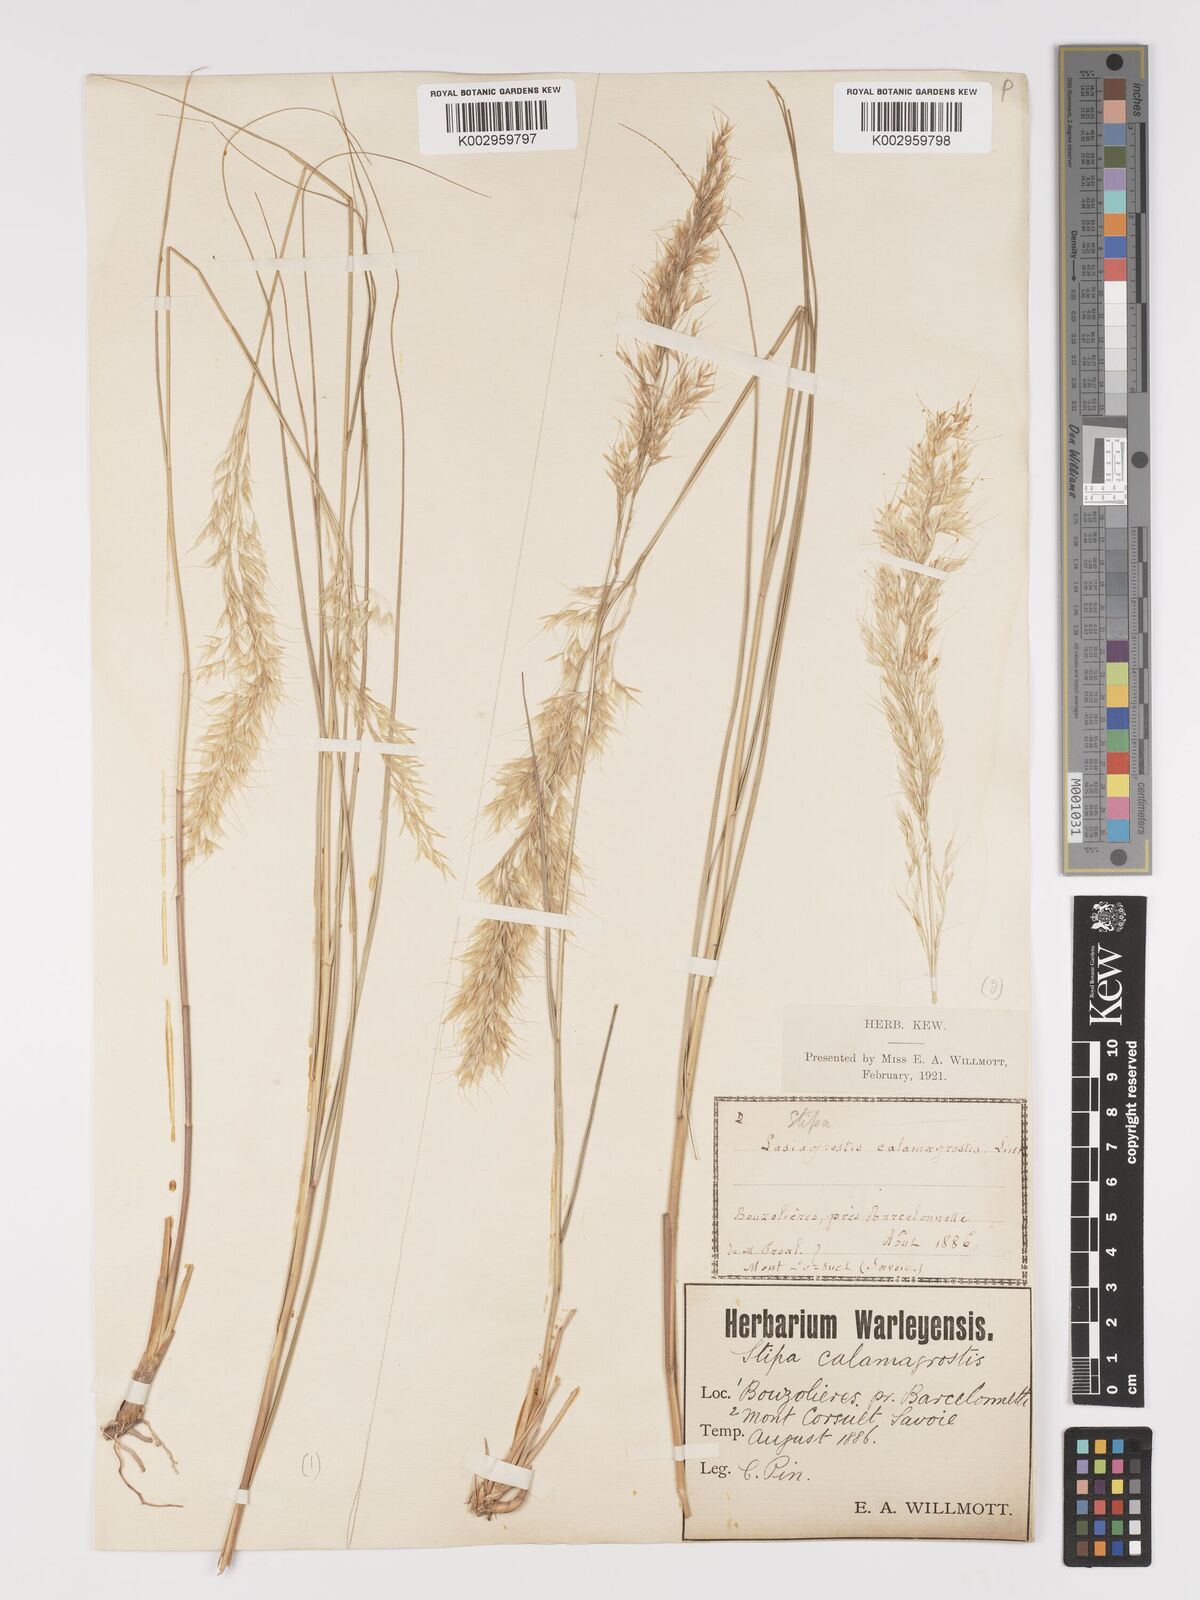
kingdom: Plantae
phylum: Tracheophyta
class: Liliopsida
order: Poales
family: Poaceae
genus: Achnatherum
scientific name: Achnatherum calamagrostis
